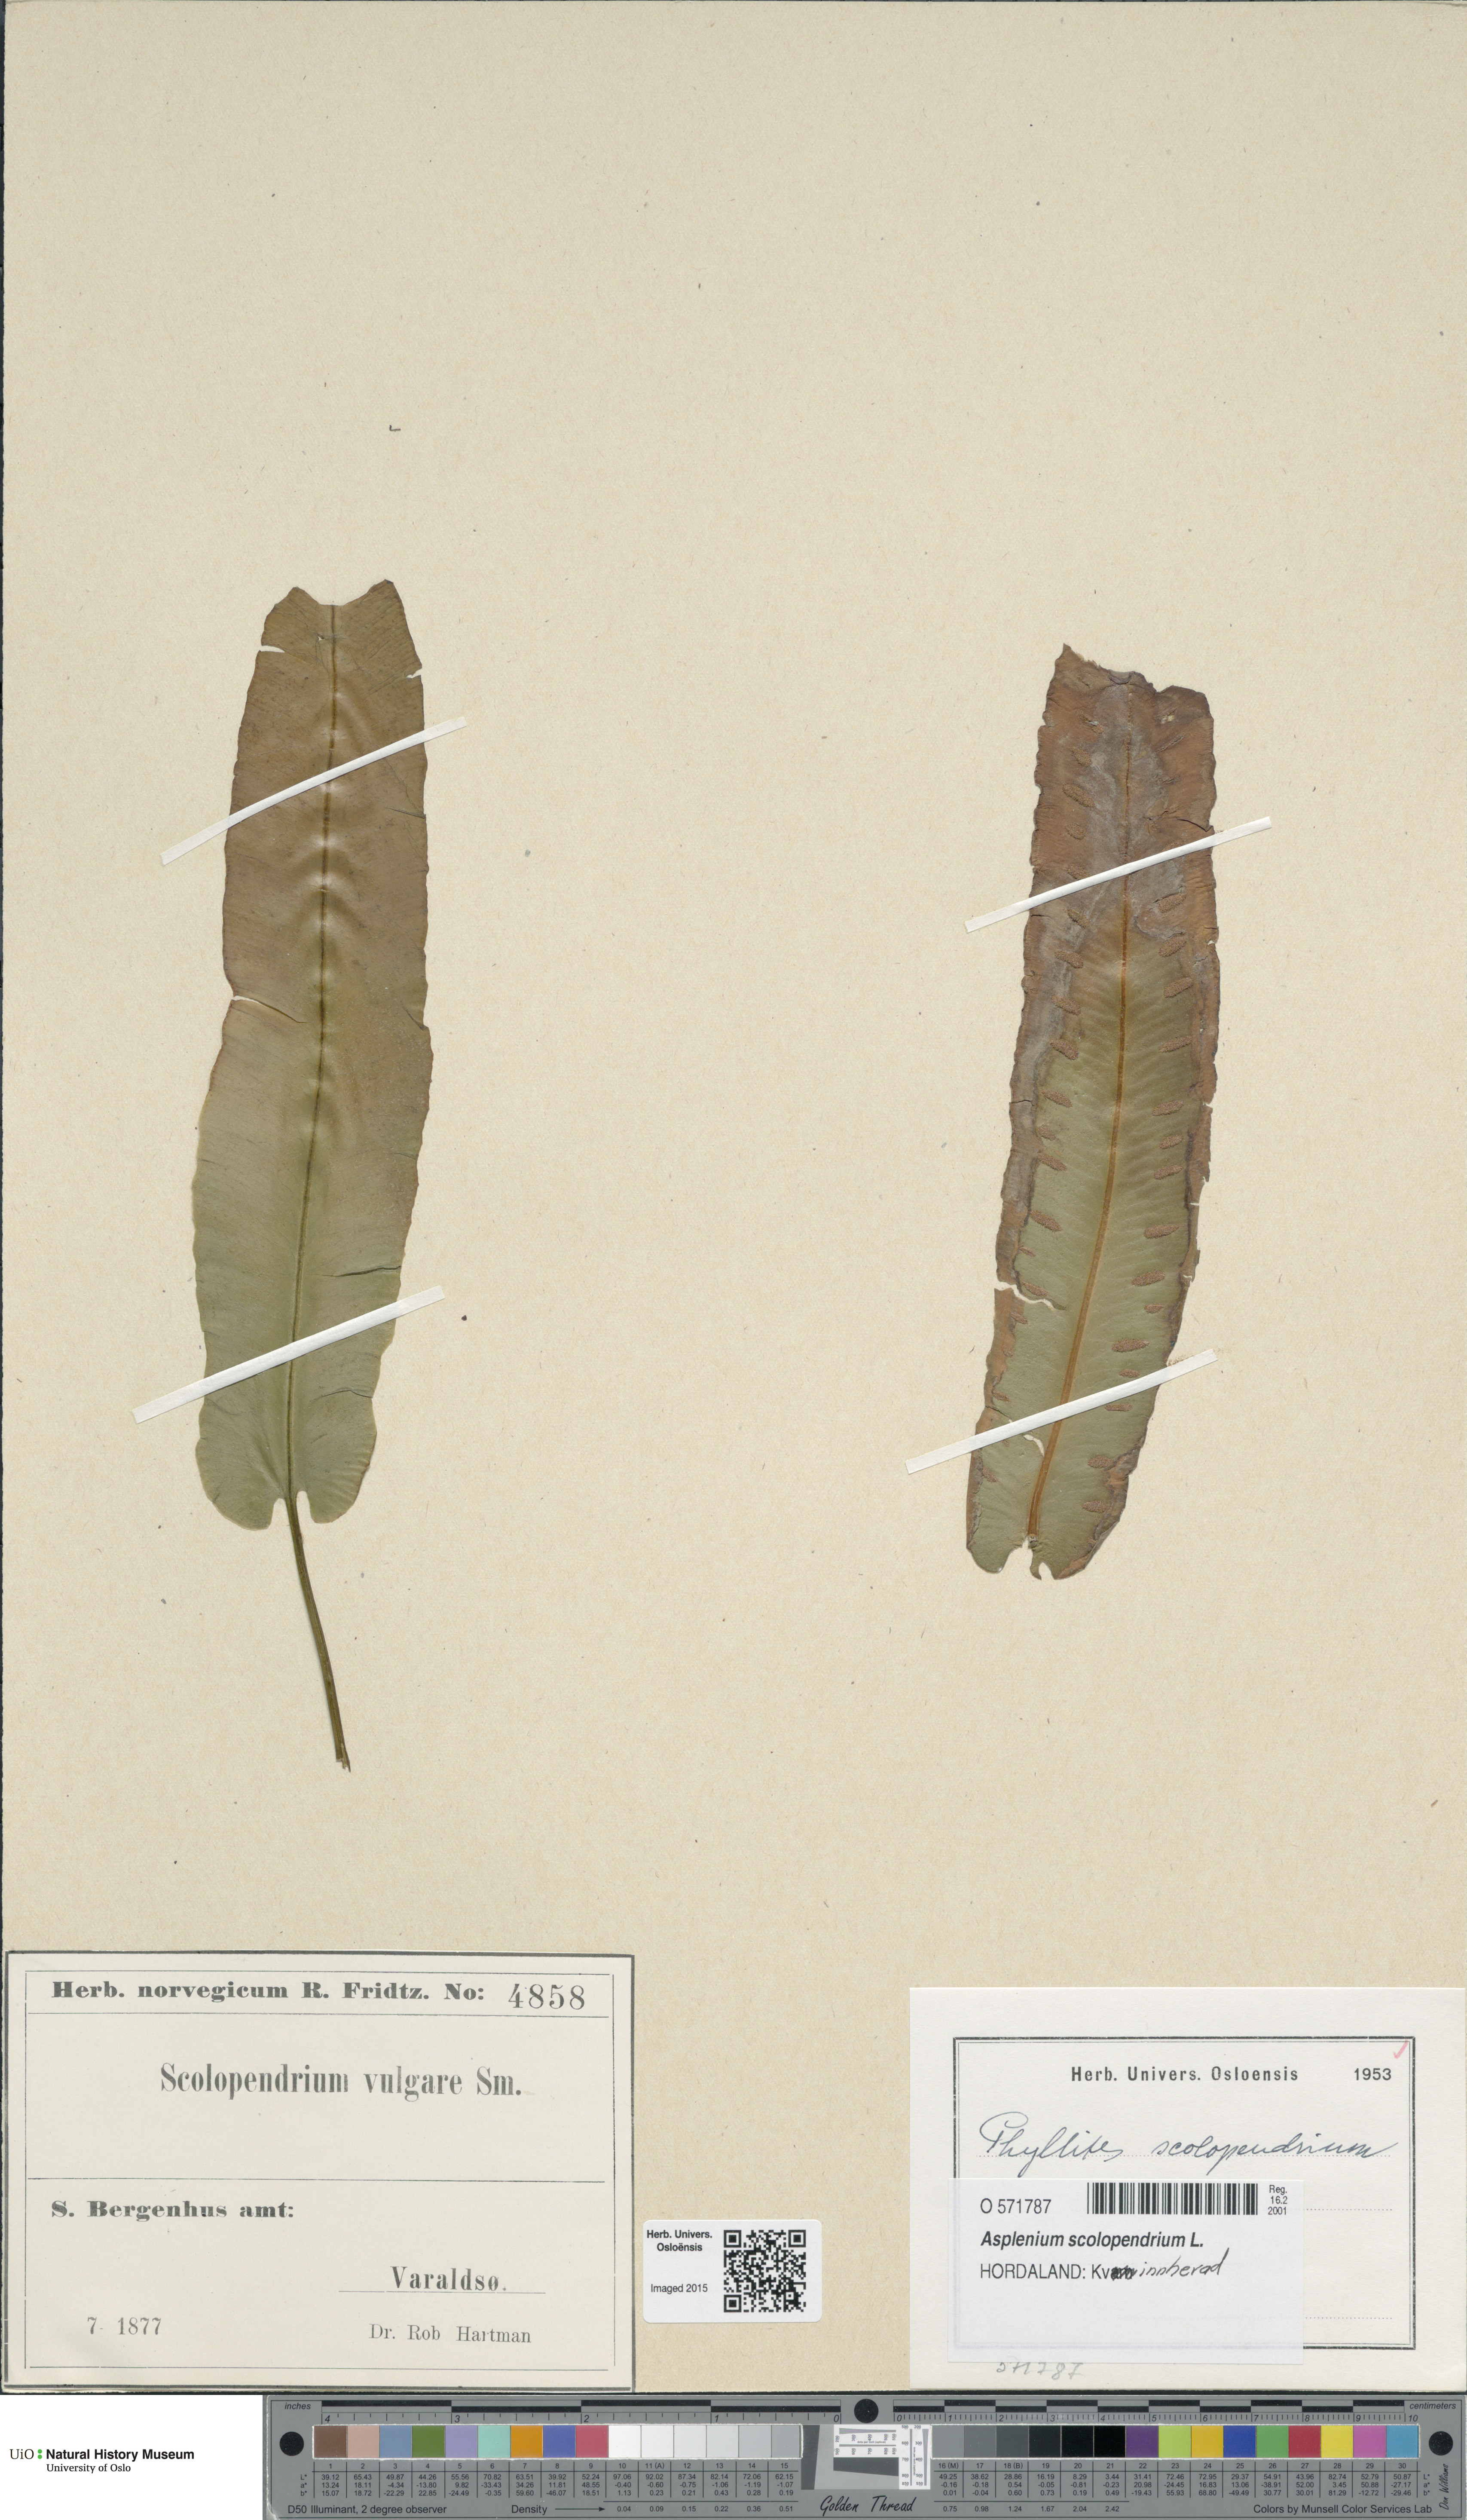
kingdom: Plantae
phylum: Tracheophyta
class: Polypodiopsida
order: Polypodiales
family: Aspleniaceae
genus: Asplenium
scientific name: Asplenium scolopendrium
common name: Hart's-tongue fern
